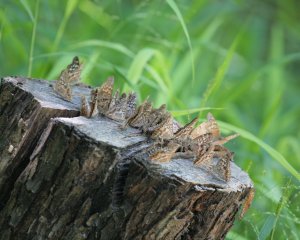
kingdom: Animalia
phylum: Arthropoda
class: Insecta
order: Lepidoptera
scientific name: Lepidoptera
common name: Butterflies
